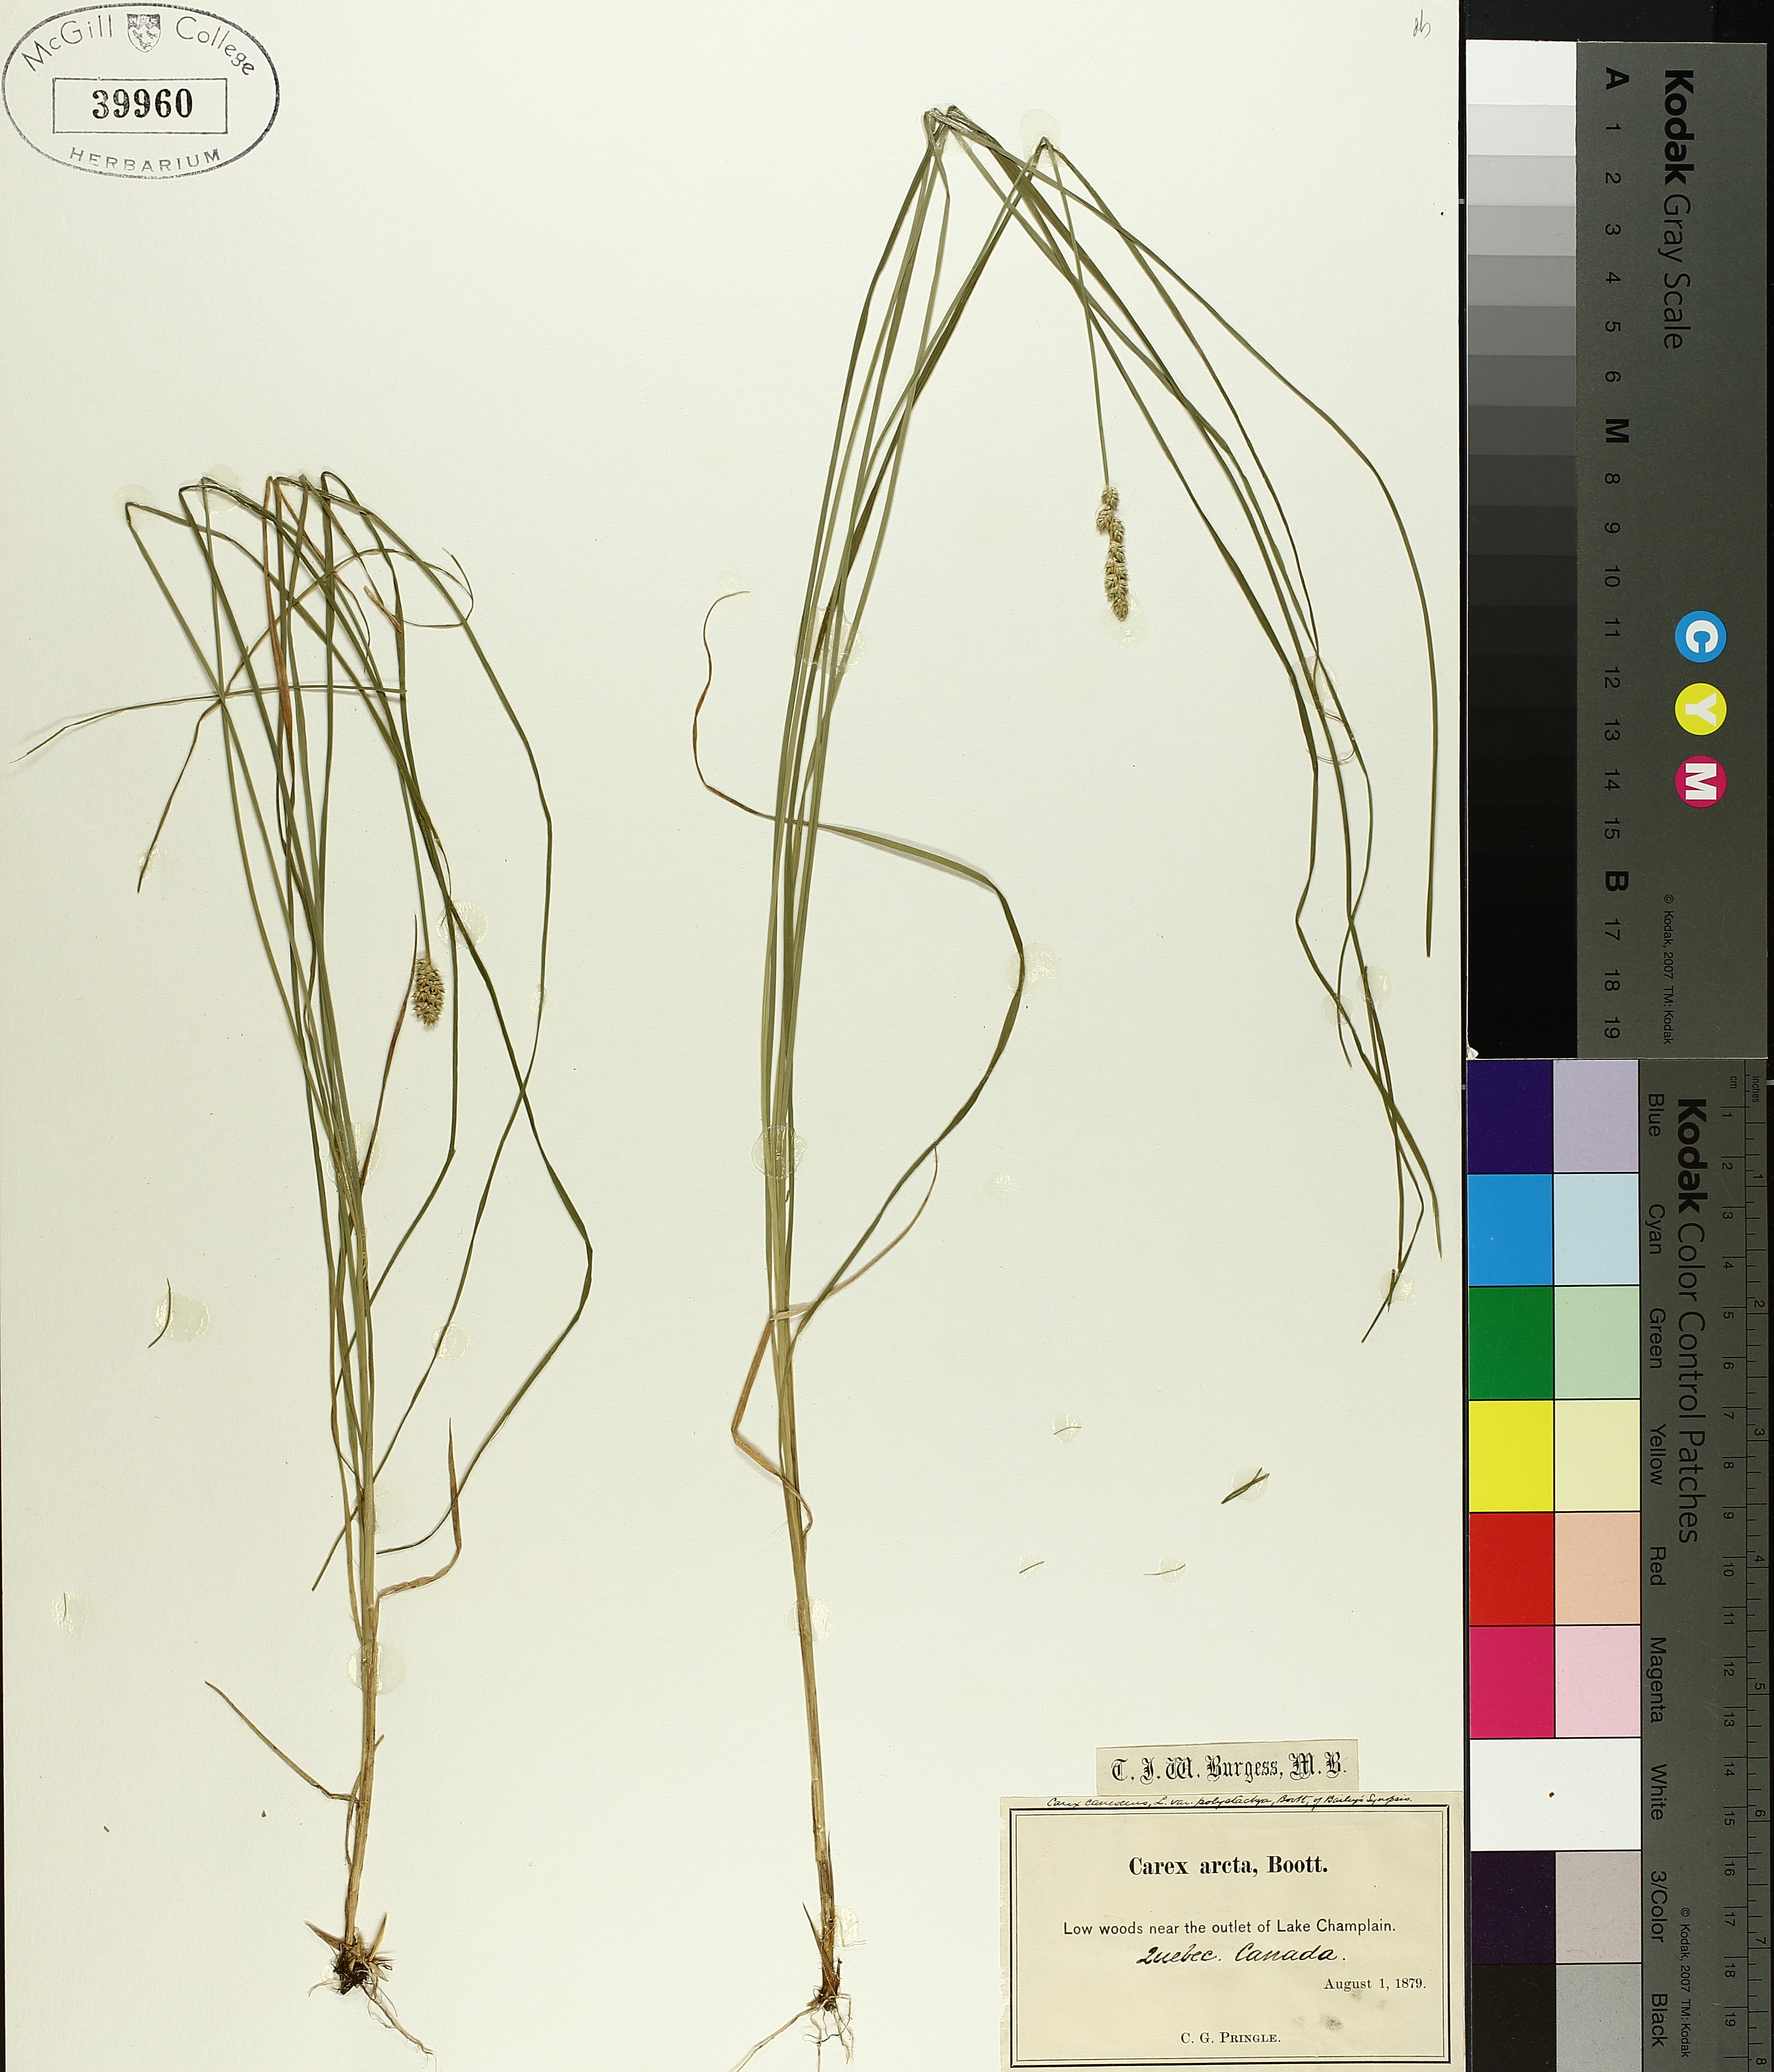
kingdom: Plantae
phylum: Tracheophyta
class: Liliopsida
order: Poales
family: Cyperaceae
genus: Carex
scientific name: Carex arcta
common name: Bear sedge
